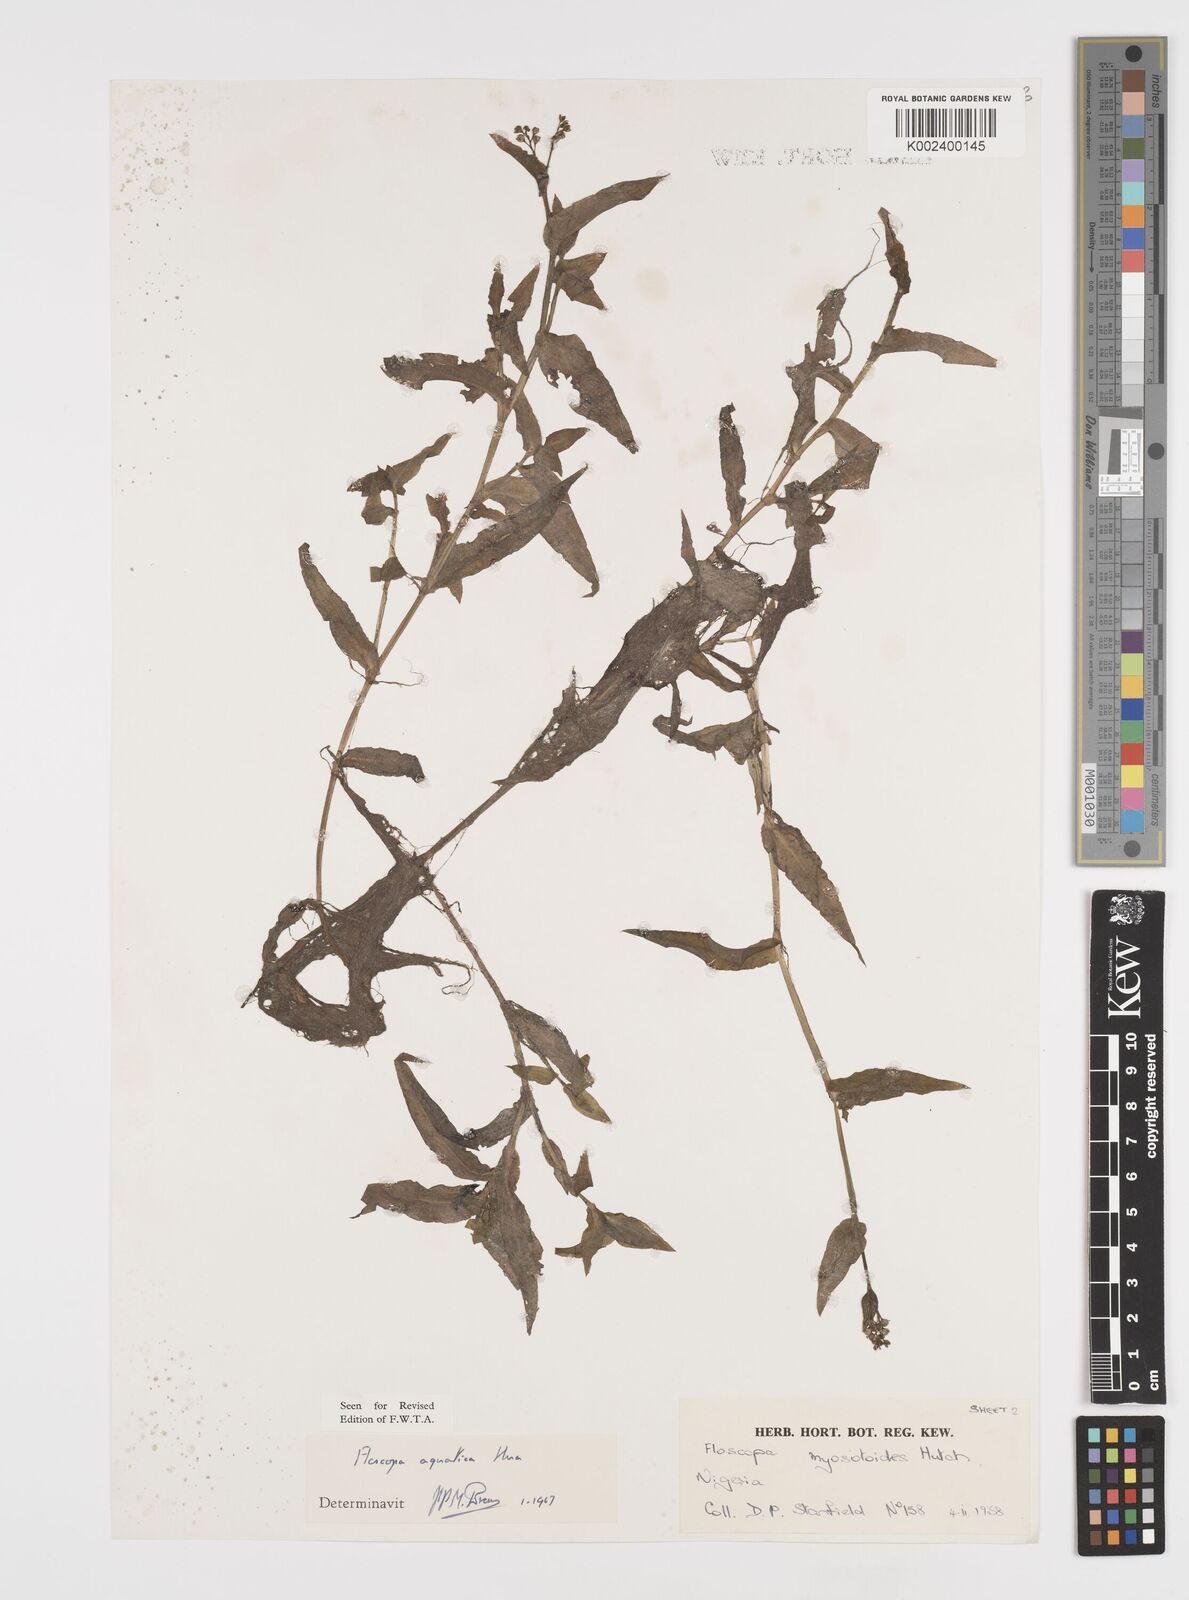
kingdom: Plantae
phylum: Tracheophyta
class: Liliopsida
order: Commelinales
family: Commelinaceae
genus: Floscopa
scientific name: Floscopa aquatica
